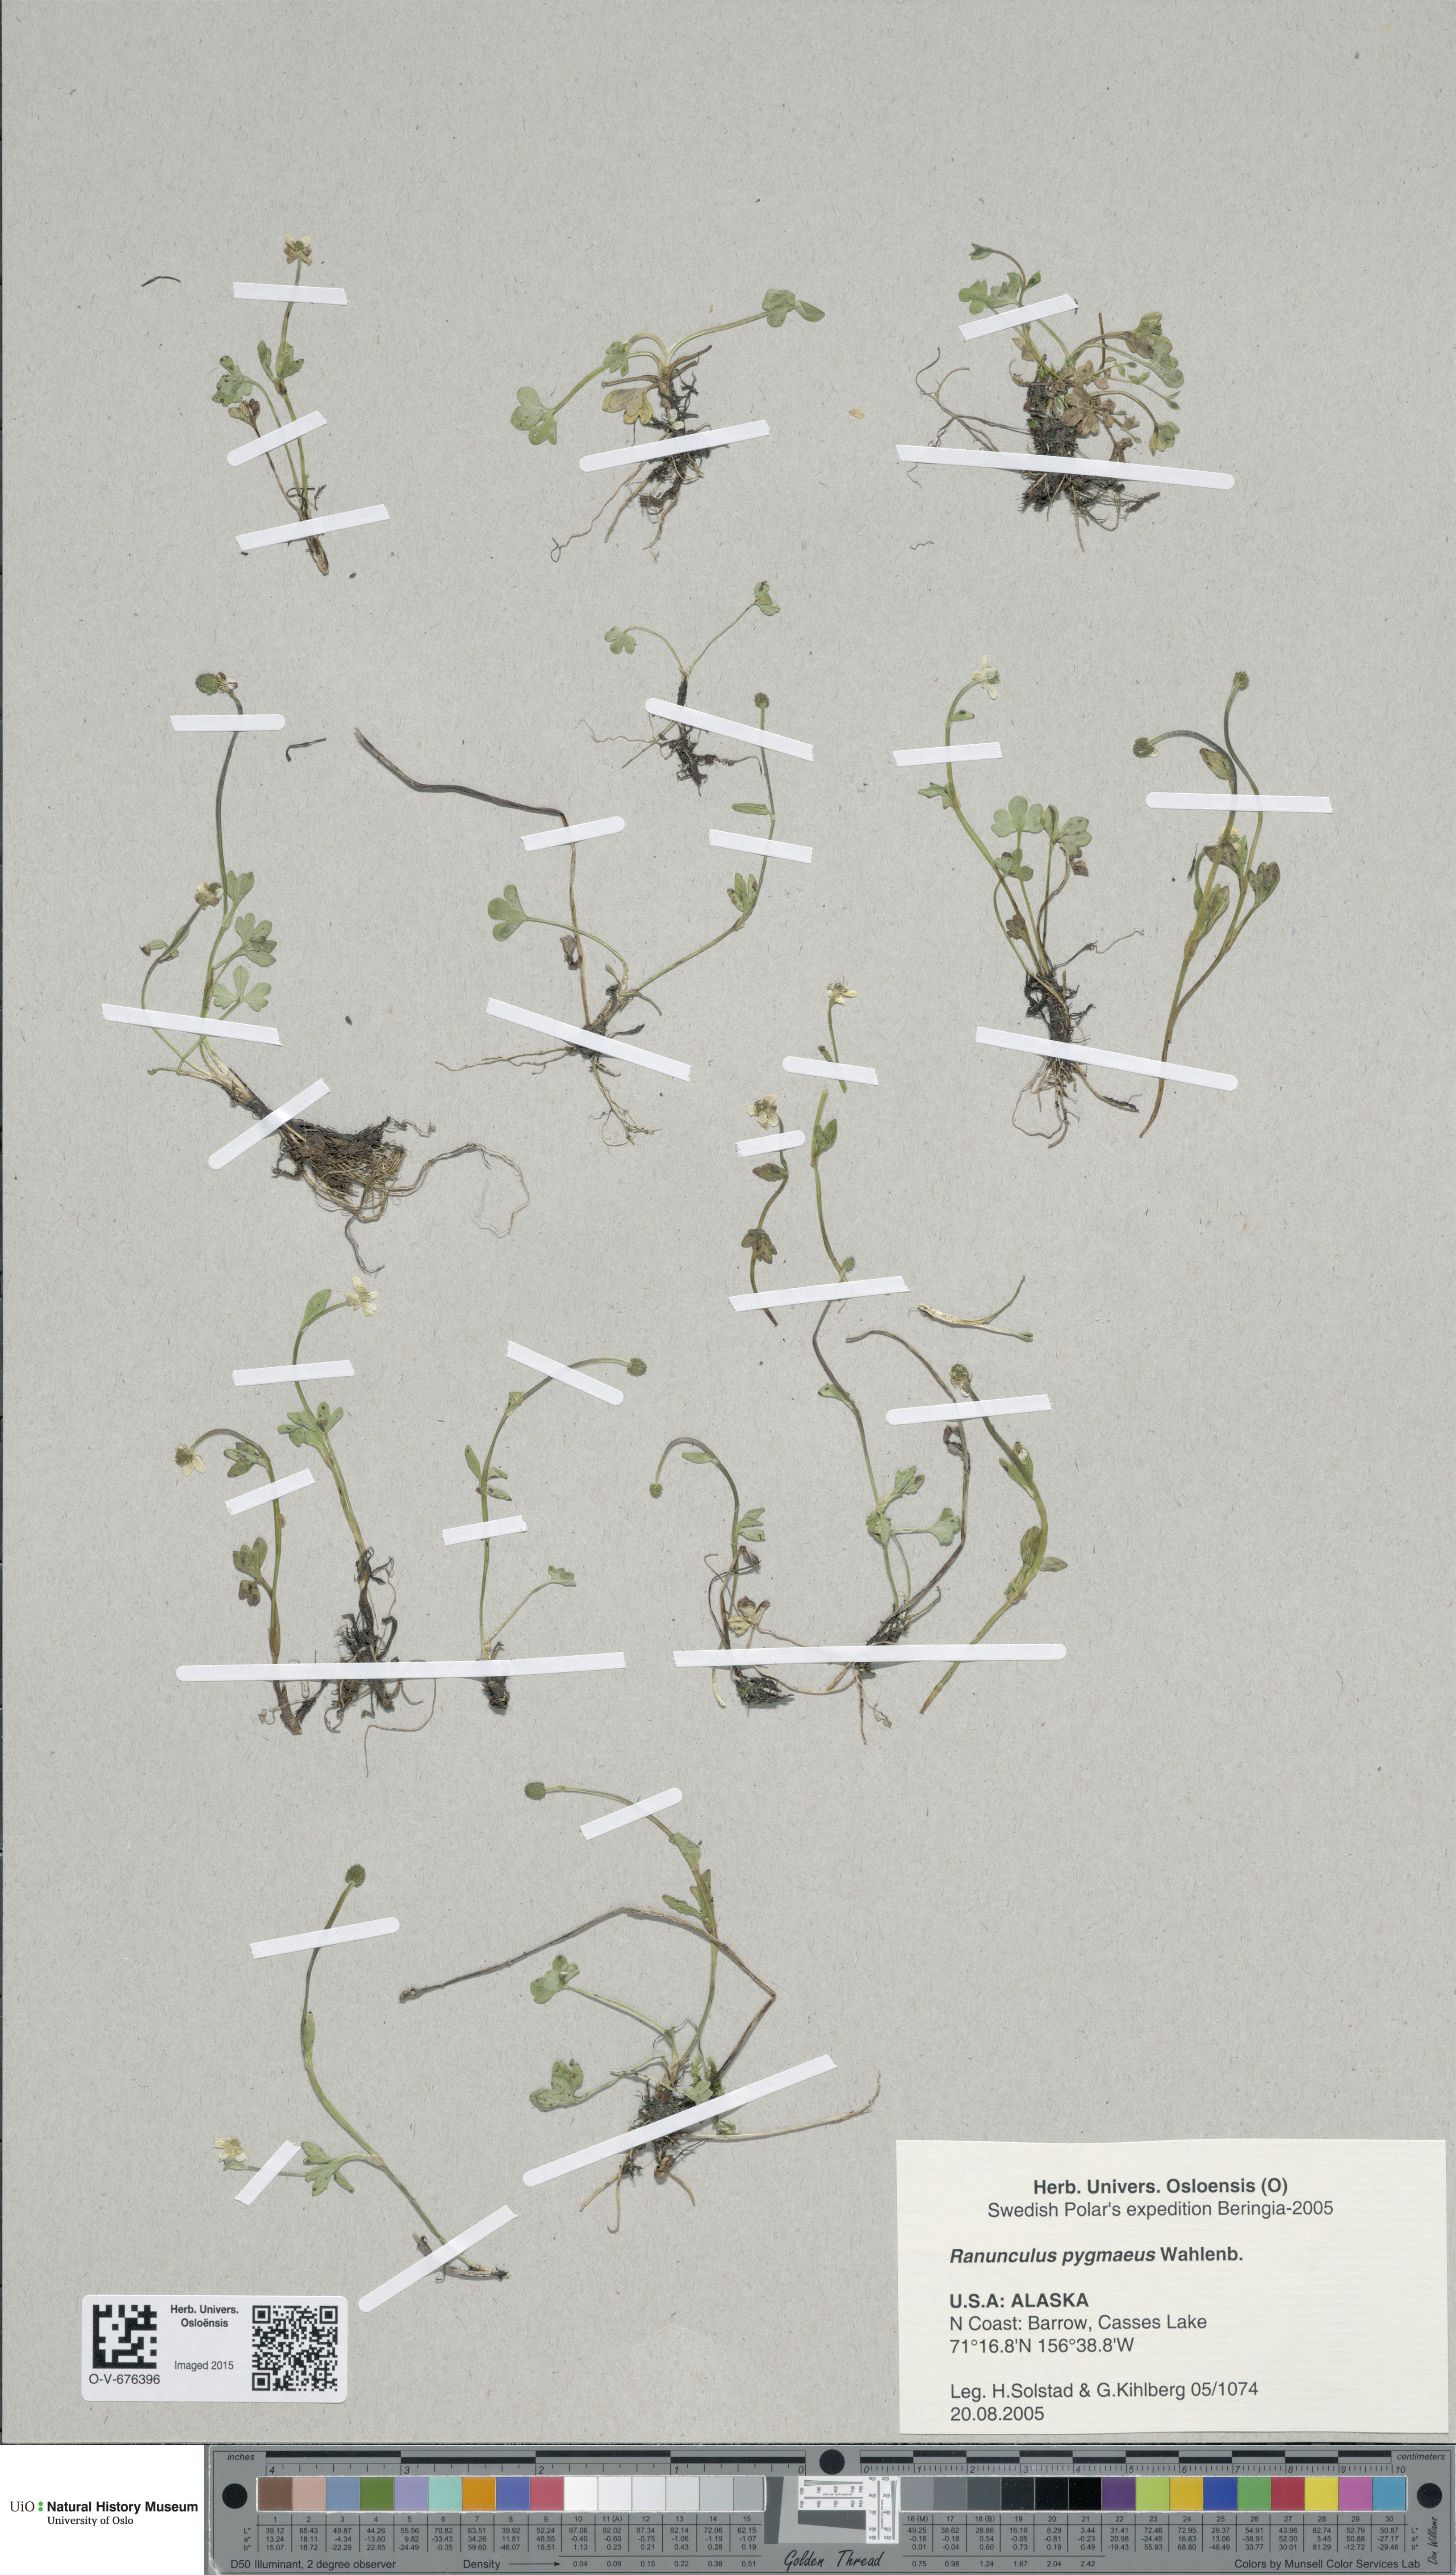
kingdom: Plantae
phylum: Tracheophyta
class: Magnoliopsida
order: Ranunculales
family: Ranunculaceae
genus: Ranunculus
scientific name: Ranunculus pygmaeus
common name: Dwarf buttercup
